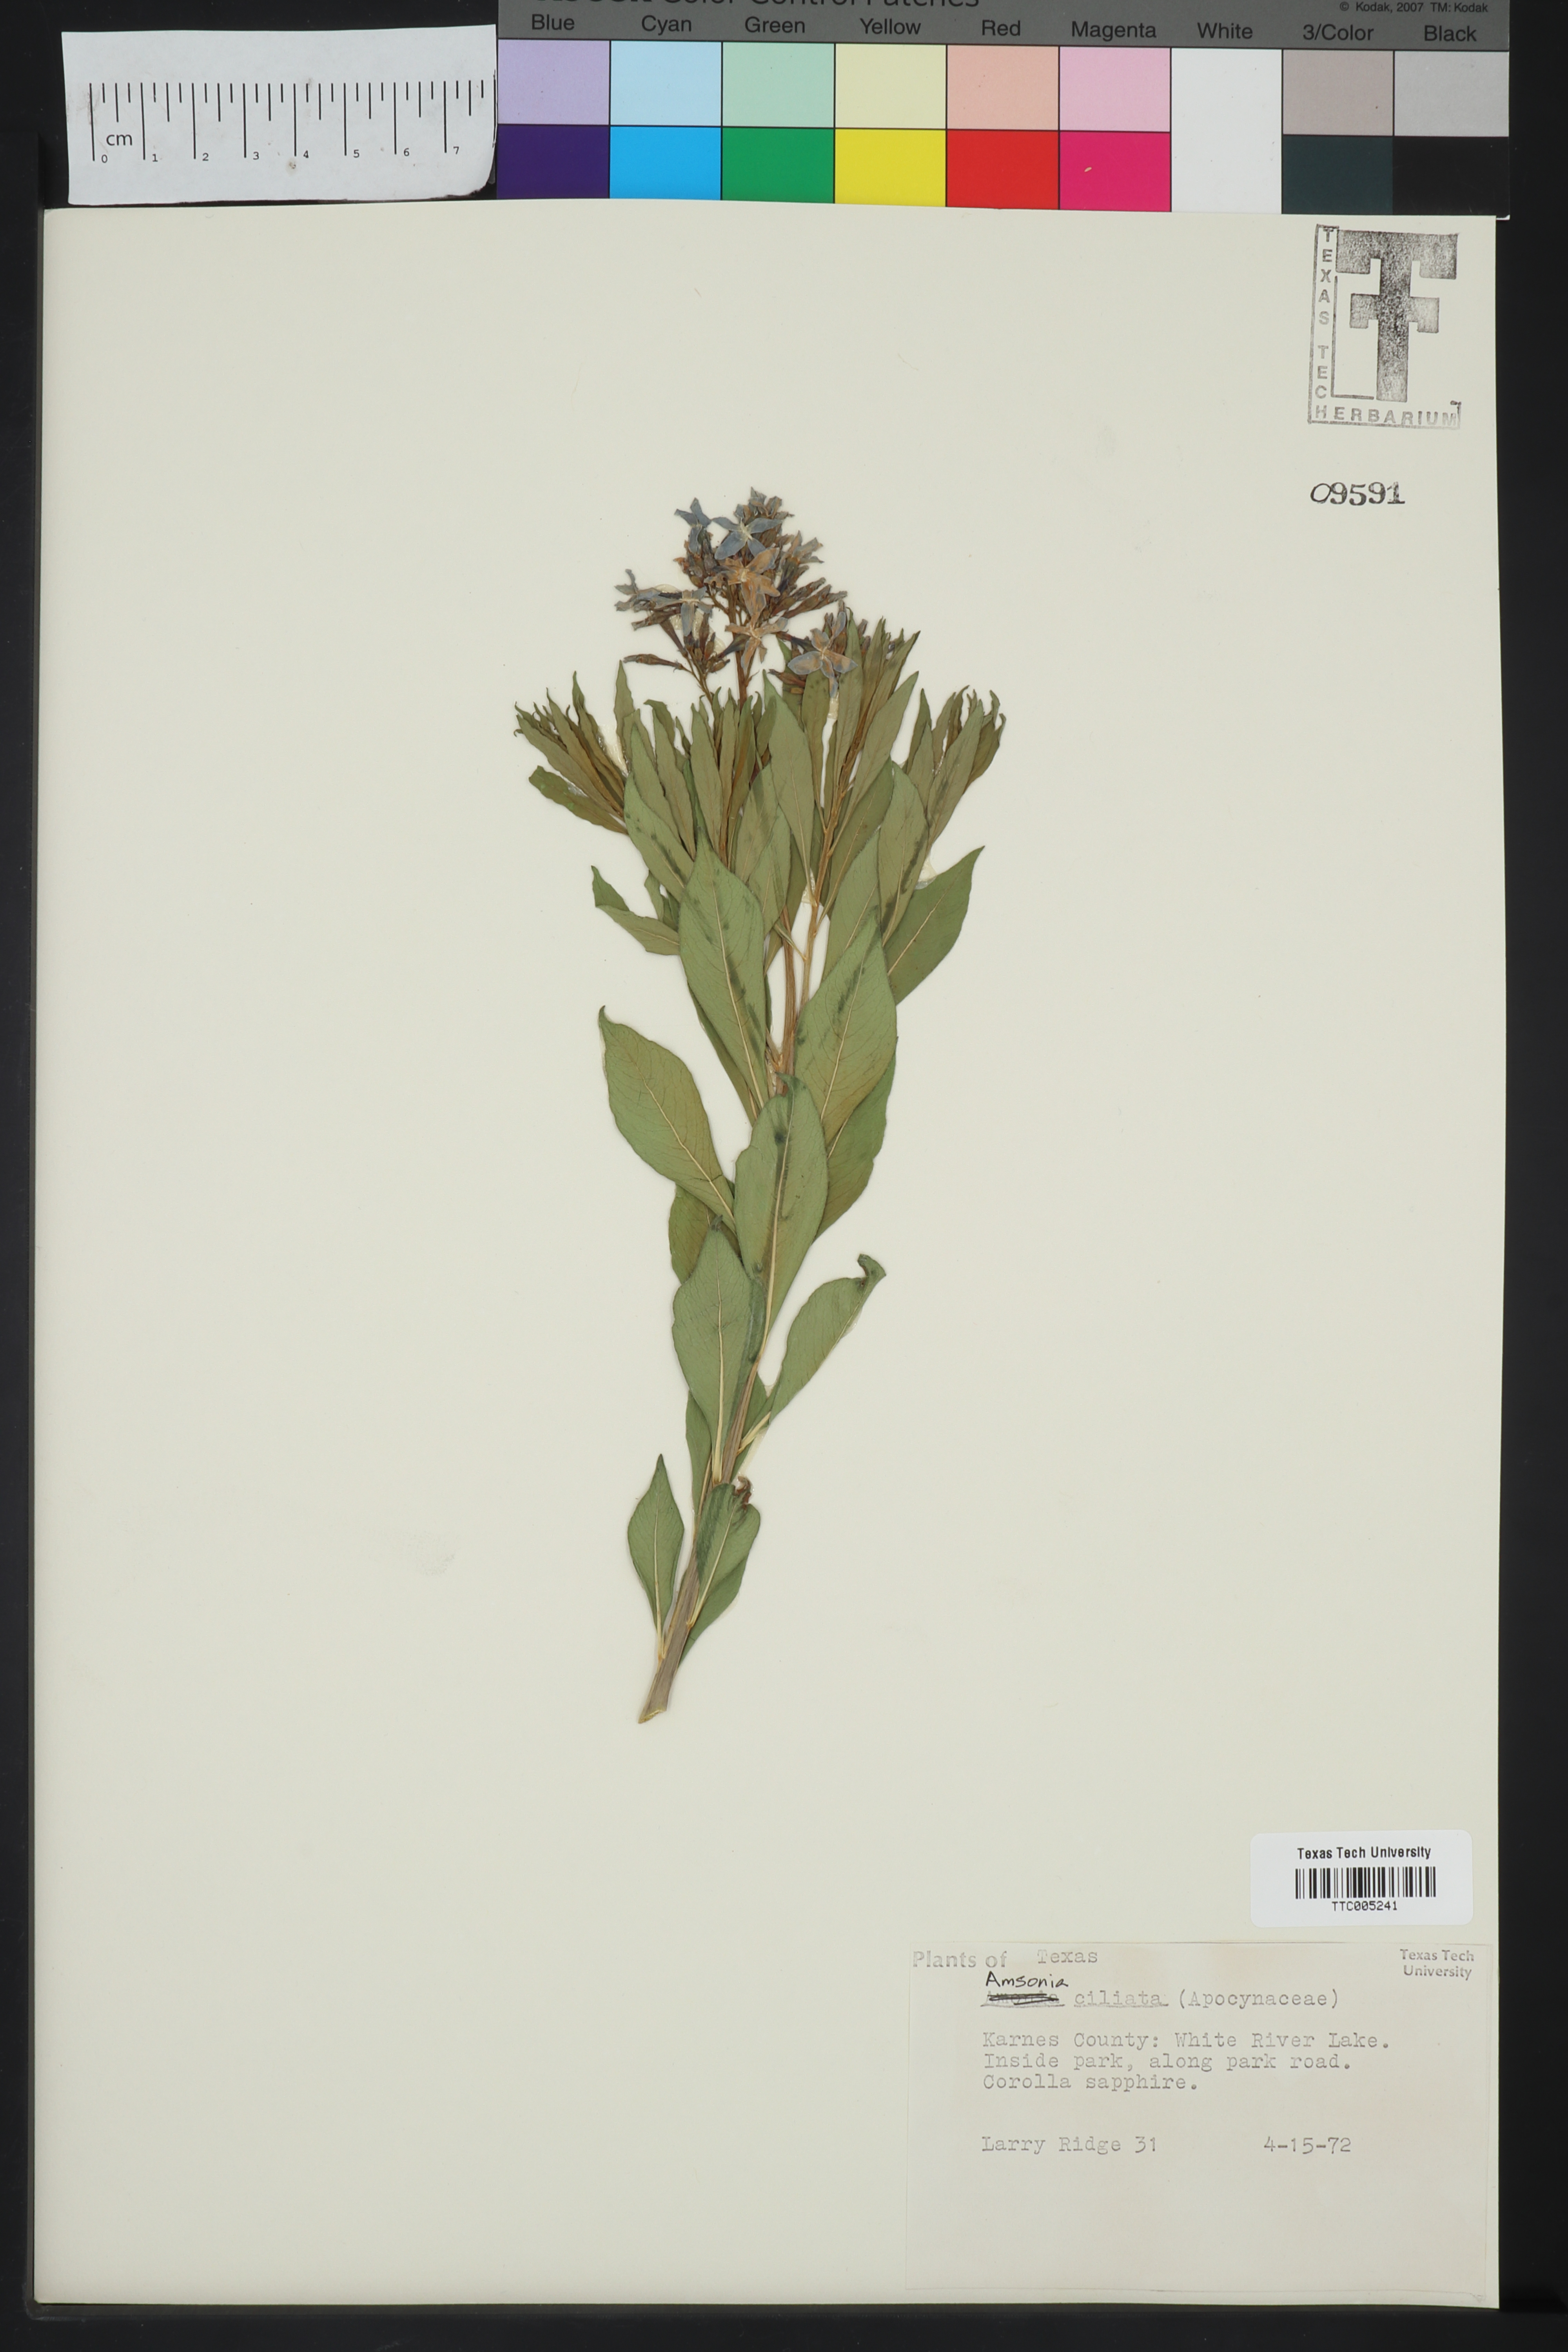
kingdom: Plantae
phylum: Tracheophyta
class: Magnoliopsida
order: Gentianales
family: Apocynaceae
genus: Amsonia
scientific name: Amsonia ciliata
